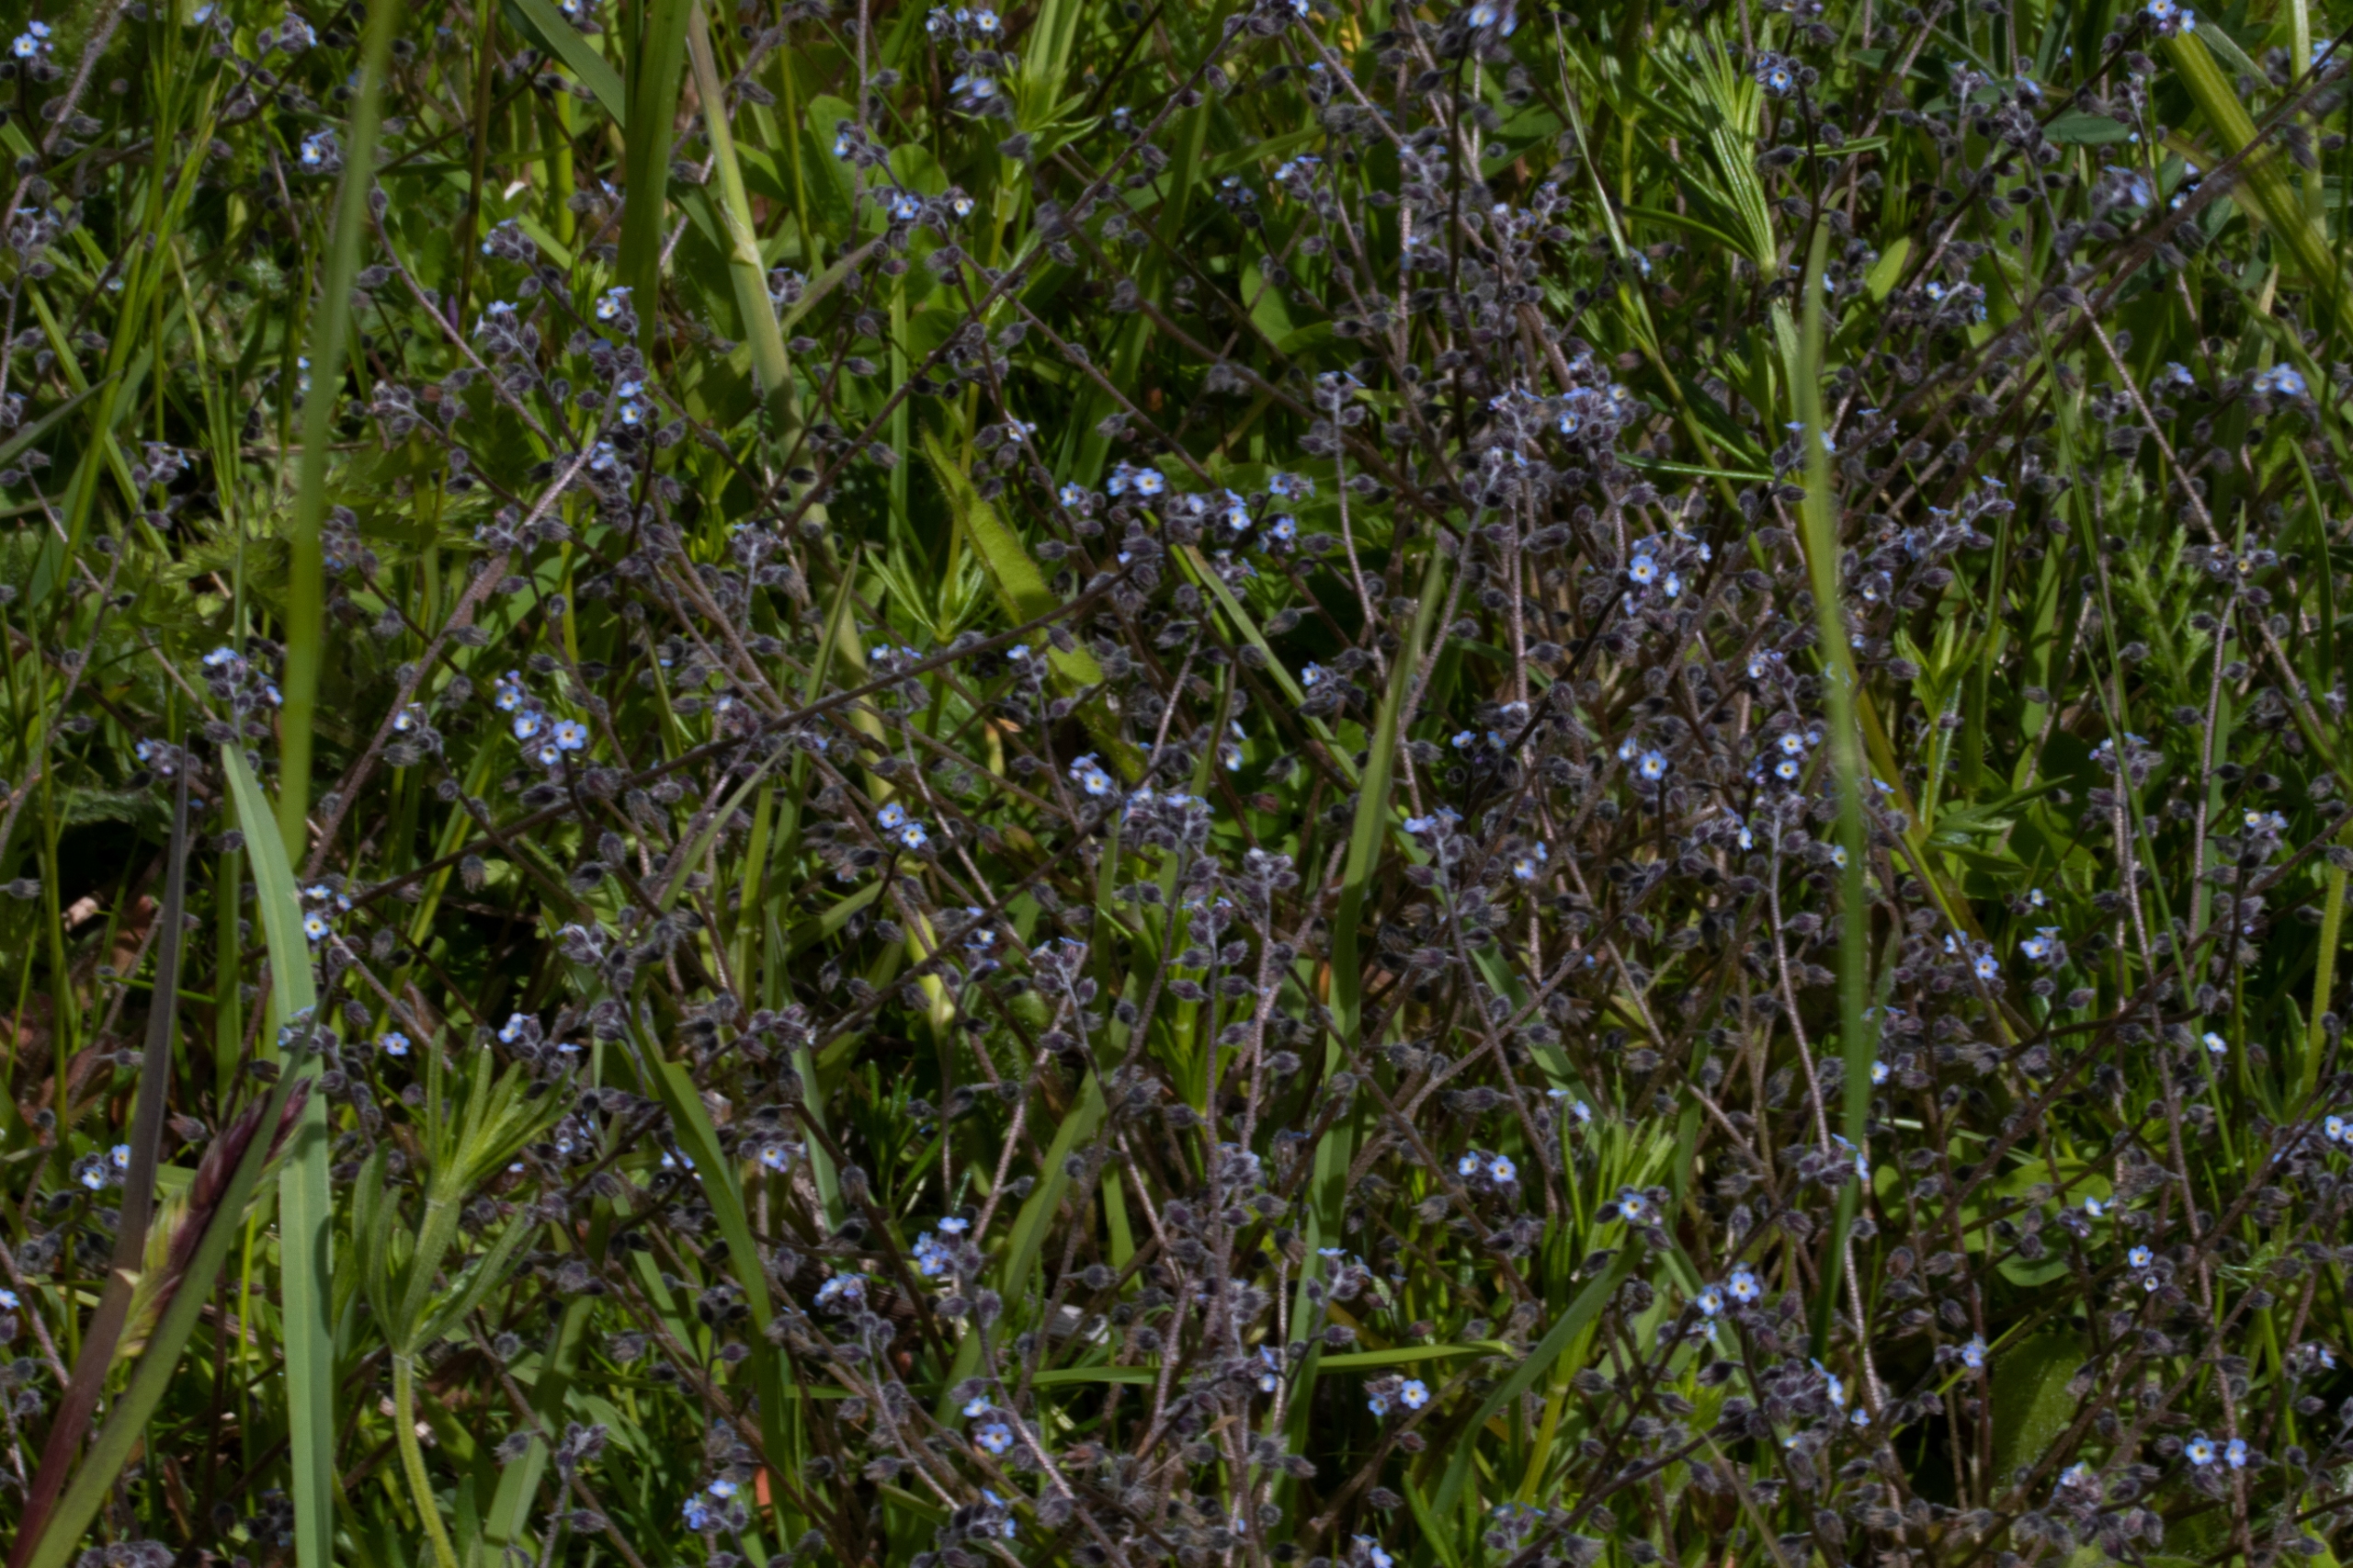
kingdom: Plantae
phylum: Tracheophyta
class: Magnoliopsida
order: Boraginales
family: Boraginaceae
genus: Myosotis
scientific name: Myosotis ramosissima
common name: Bakke-forglemmigej
